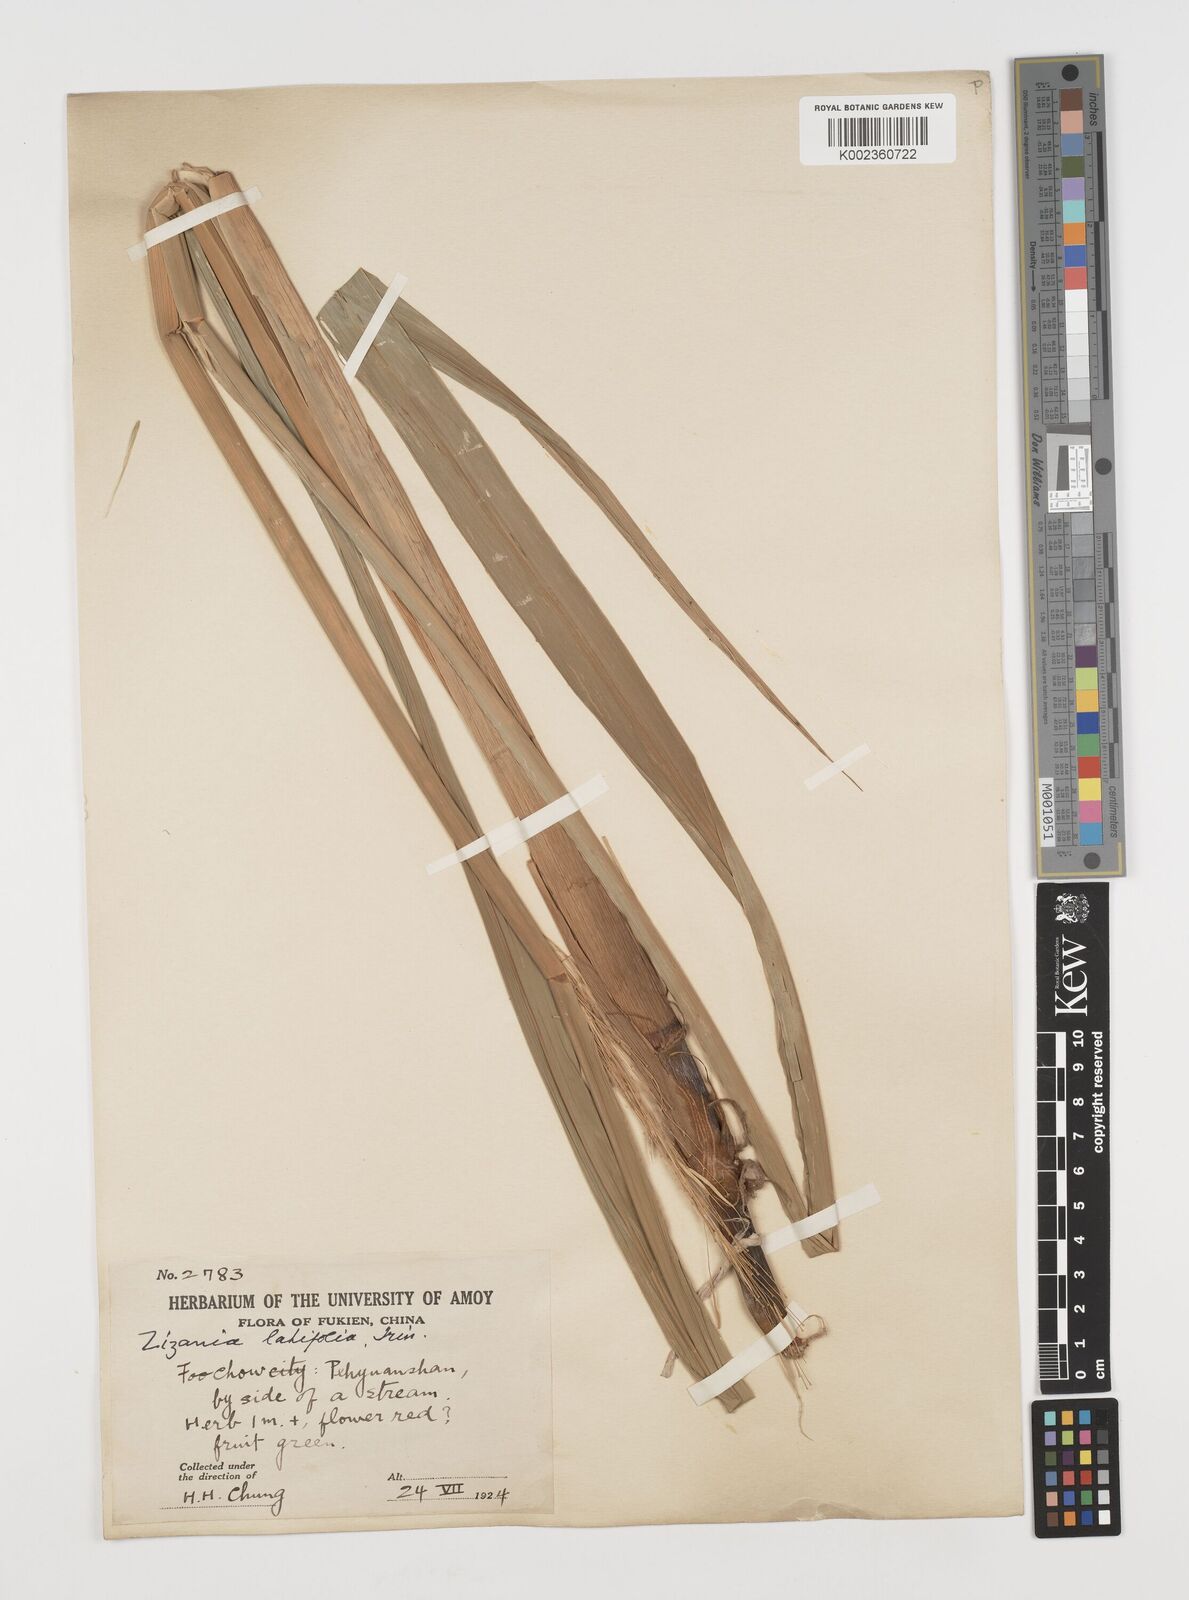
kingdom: Plantae
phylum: Tracheophyta
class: Liliopsida
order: Poales
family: Poaceae
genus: Zizania
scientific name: Zizania latifolia
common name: Manchurian wildrice
